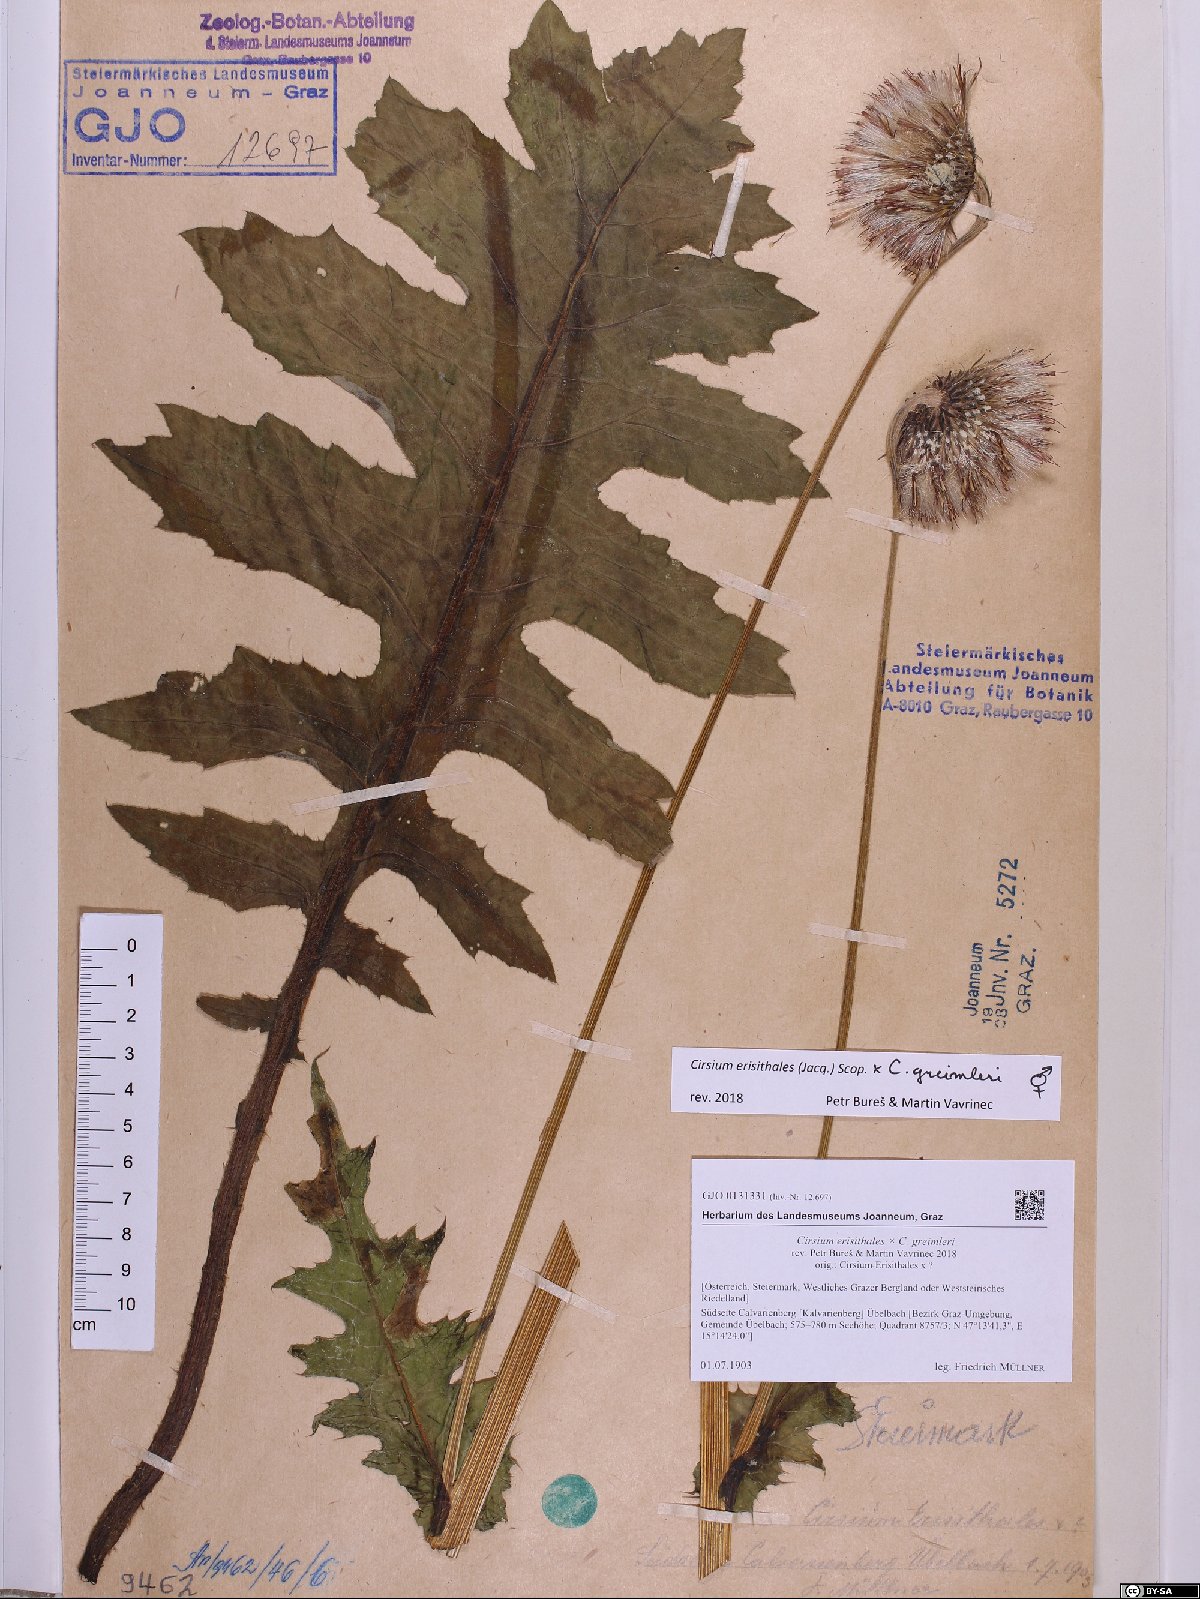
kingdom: Plantae
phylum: Tracheophyta
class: Magnoliopsida
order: Asterales
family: Asteraceae
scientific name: Asteraceae
